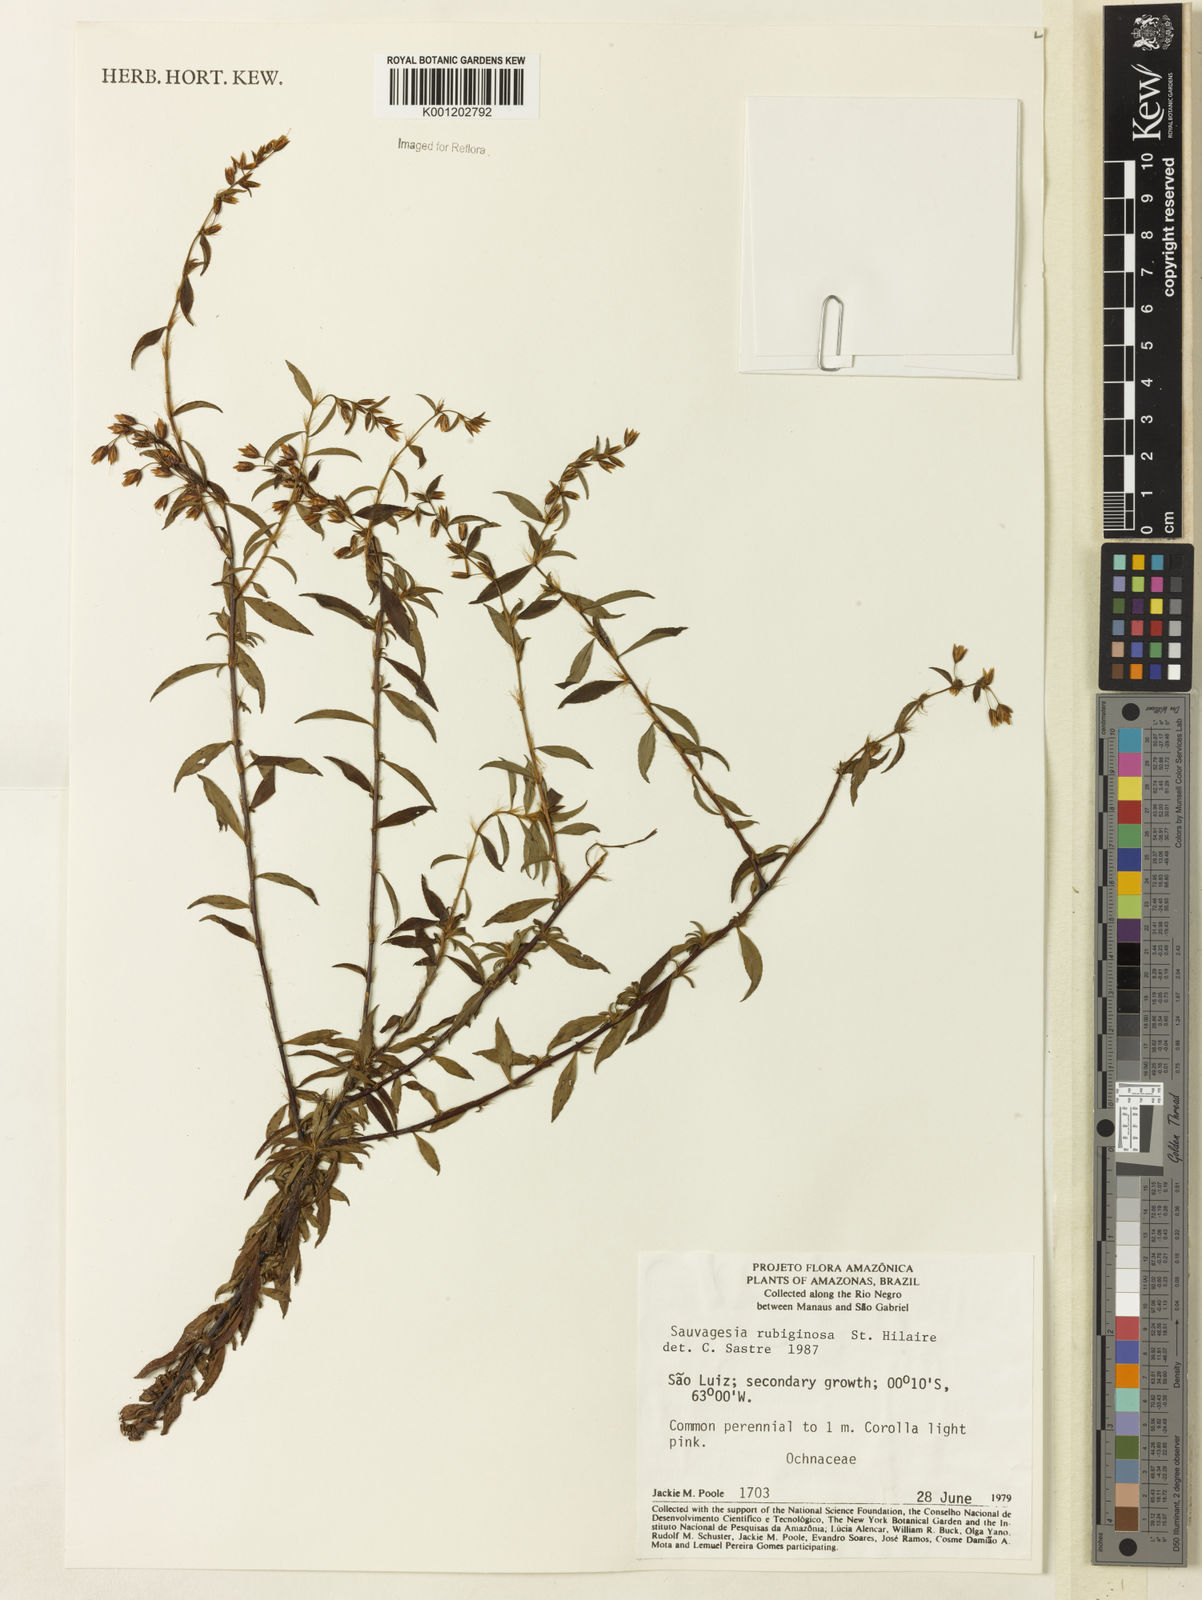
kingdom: Plantae
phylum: Tracheophyta
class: Magnoliopsida
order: Malpighiales
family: Ochnaceae
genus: Sauvagesia
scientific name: Sauvagesia rubiginosa
